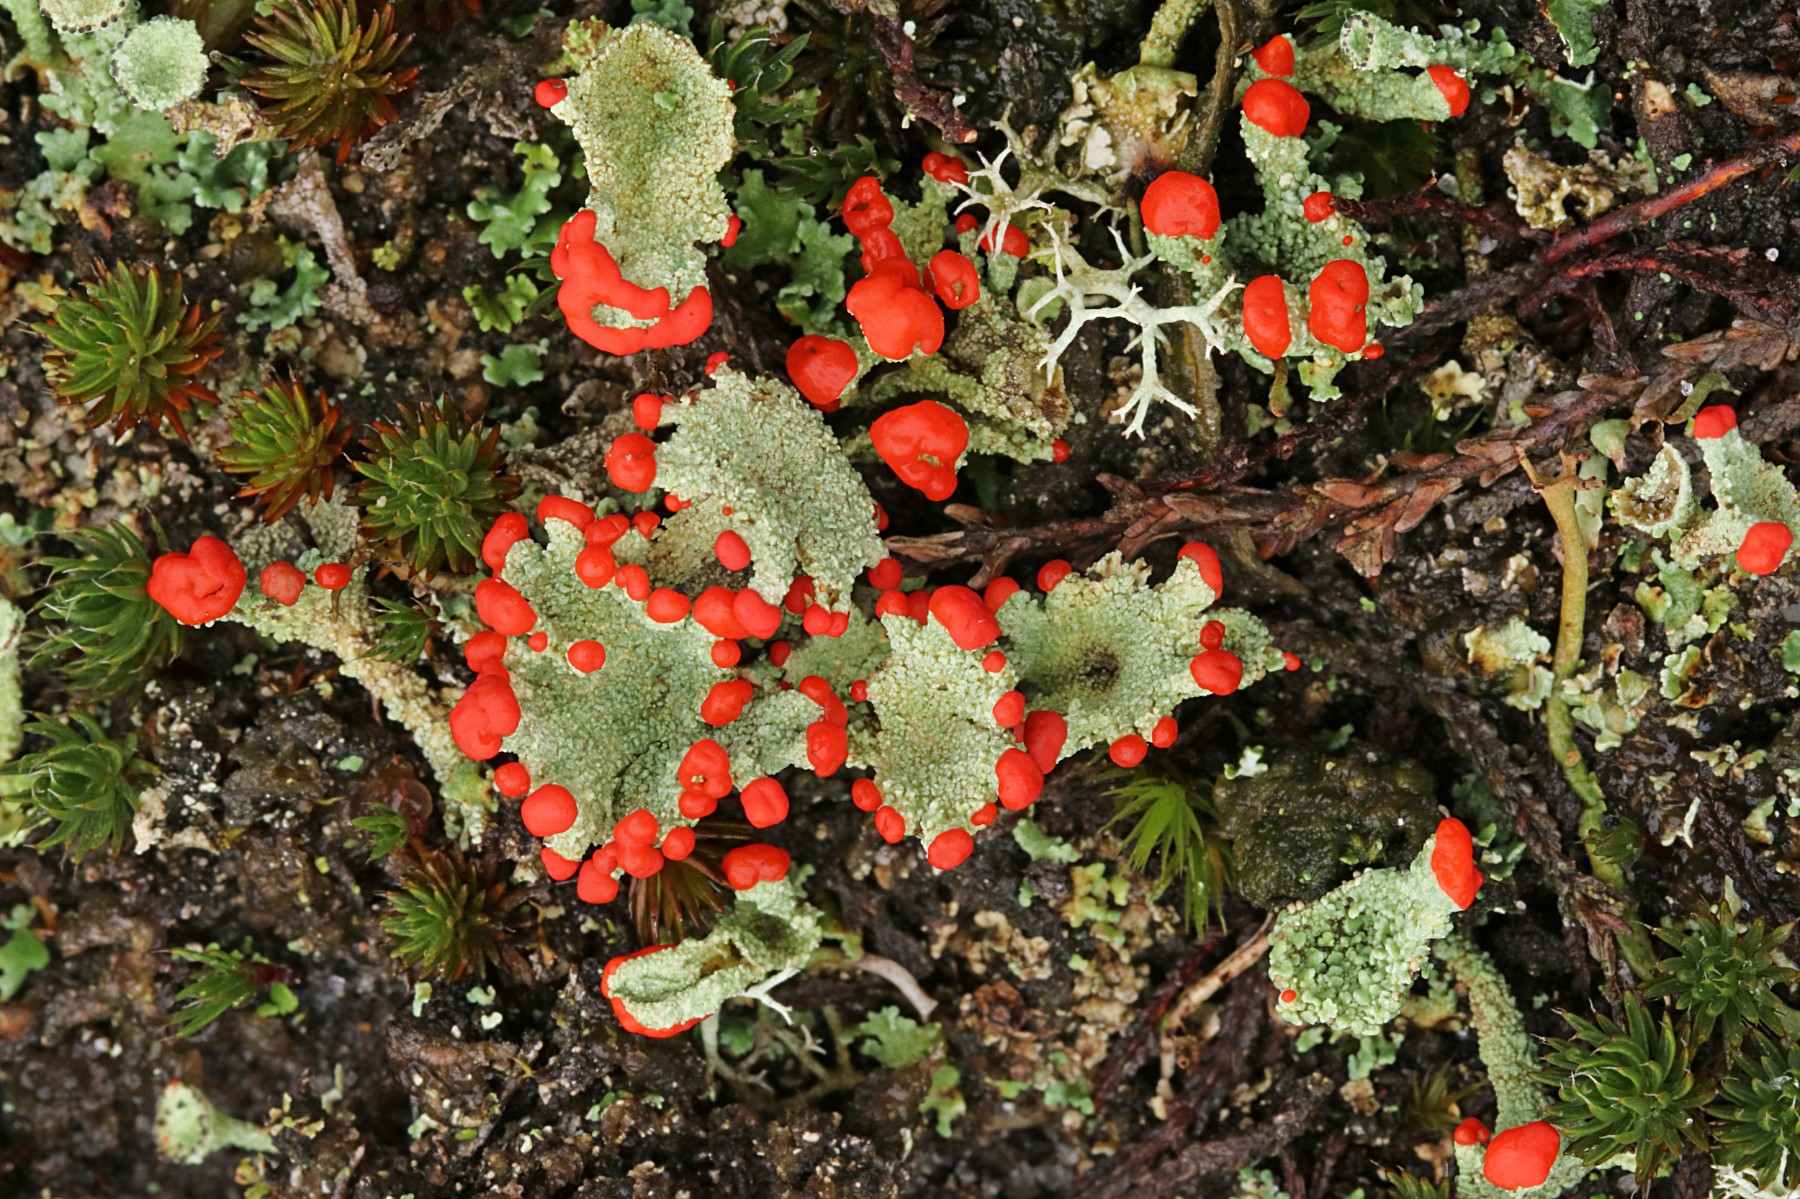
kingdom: Fungi
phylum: Ascomycota
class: Lecanoromycetes
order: Lecanorales
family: Cladoniaceae
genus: Cladonia
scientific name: Cladonia diversa
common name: rød bægerlav
